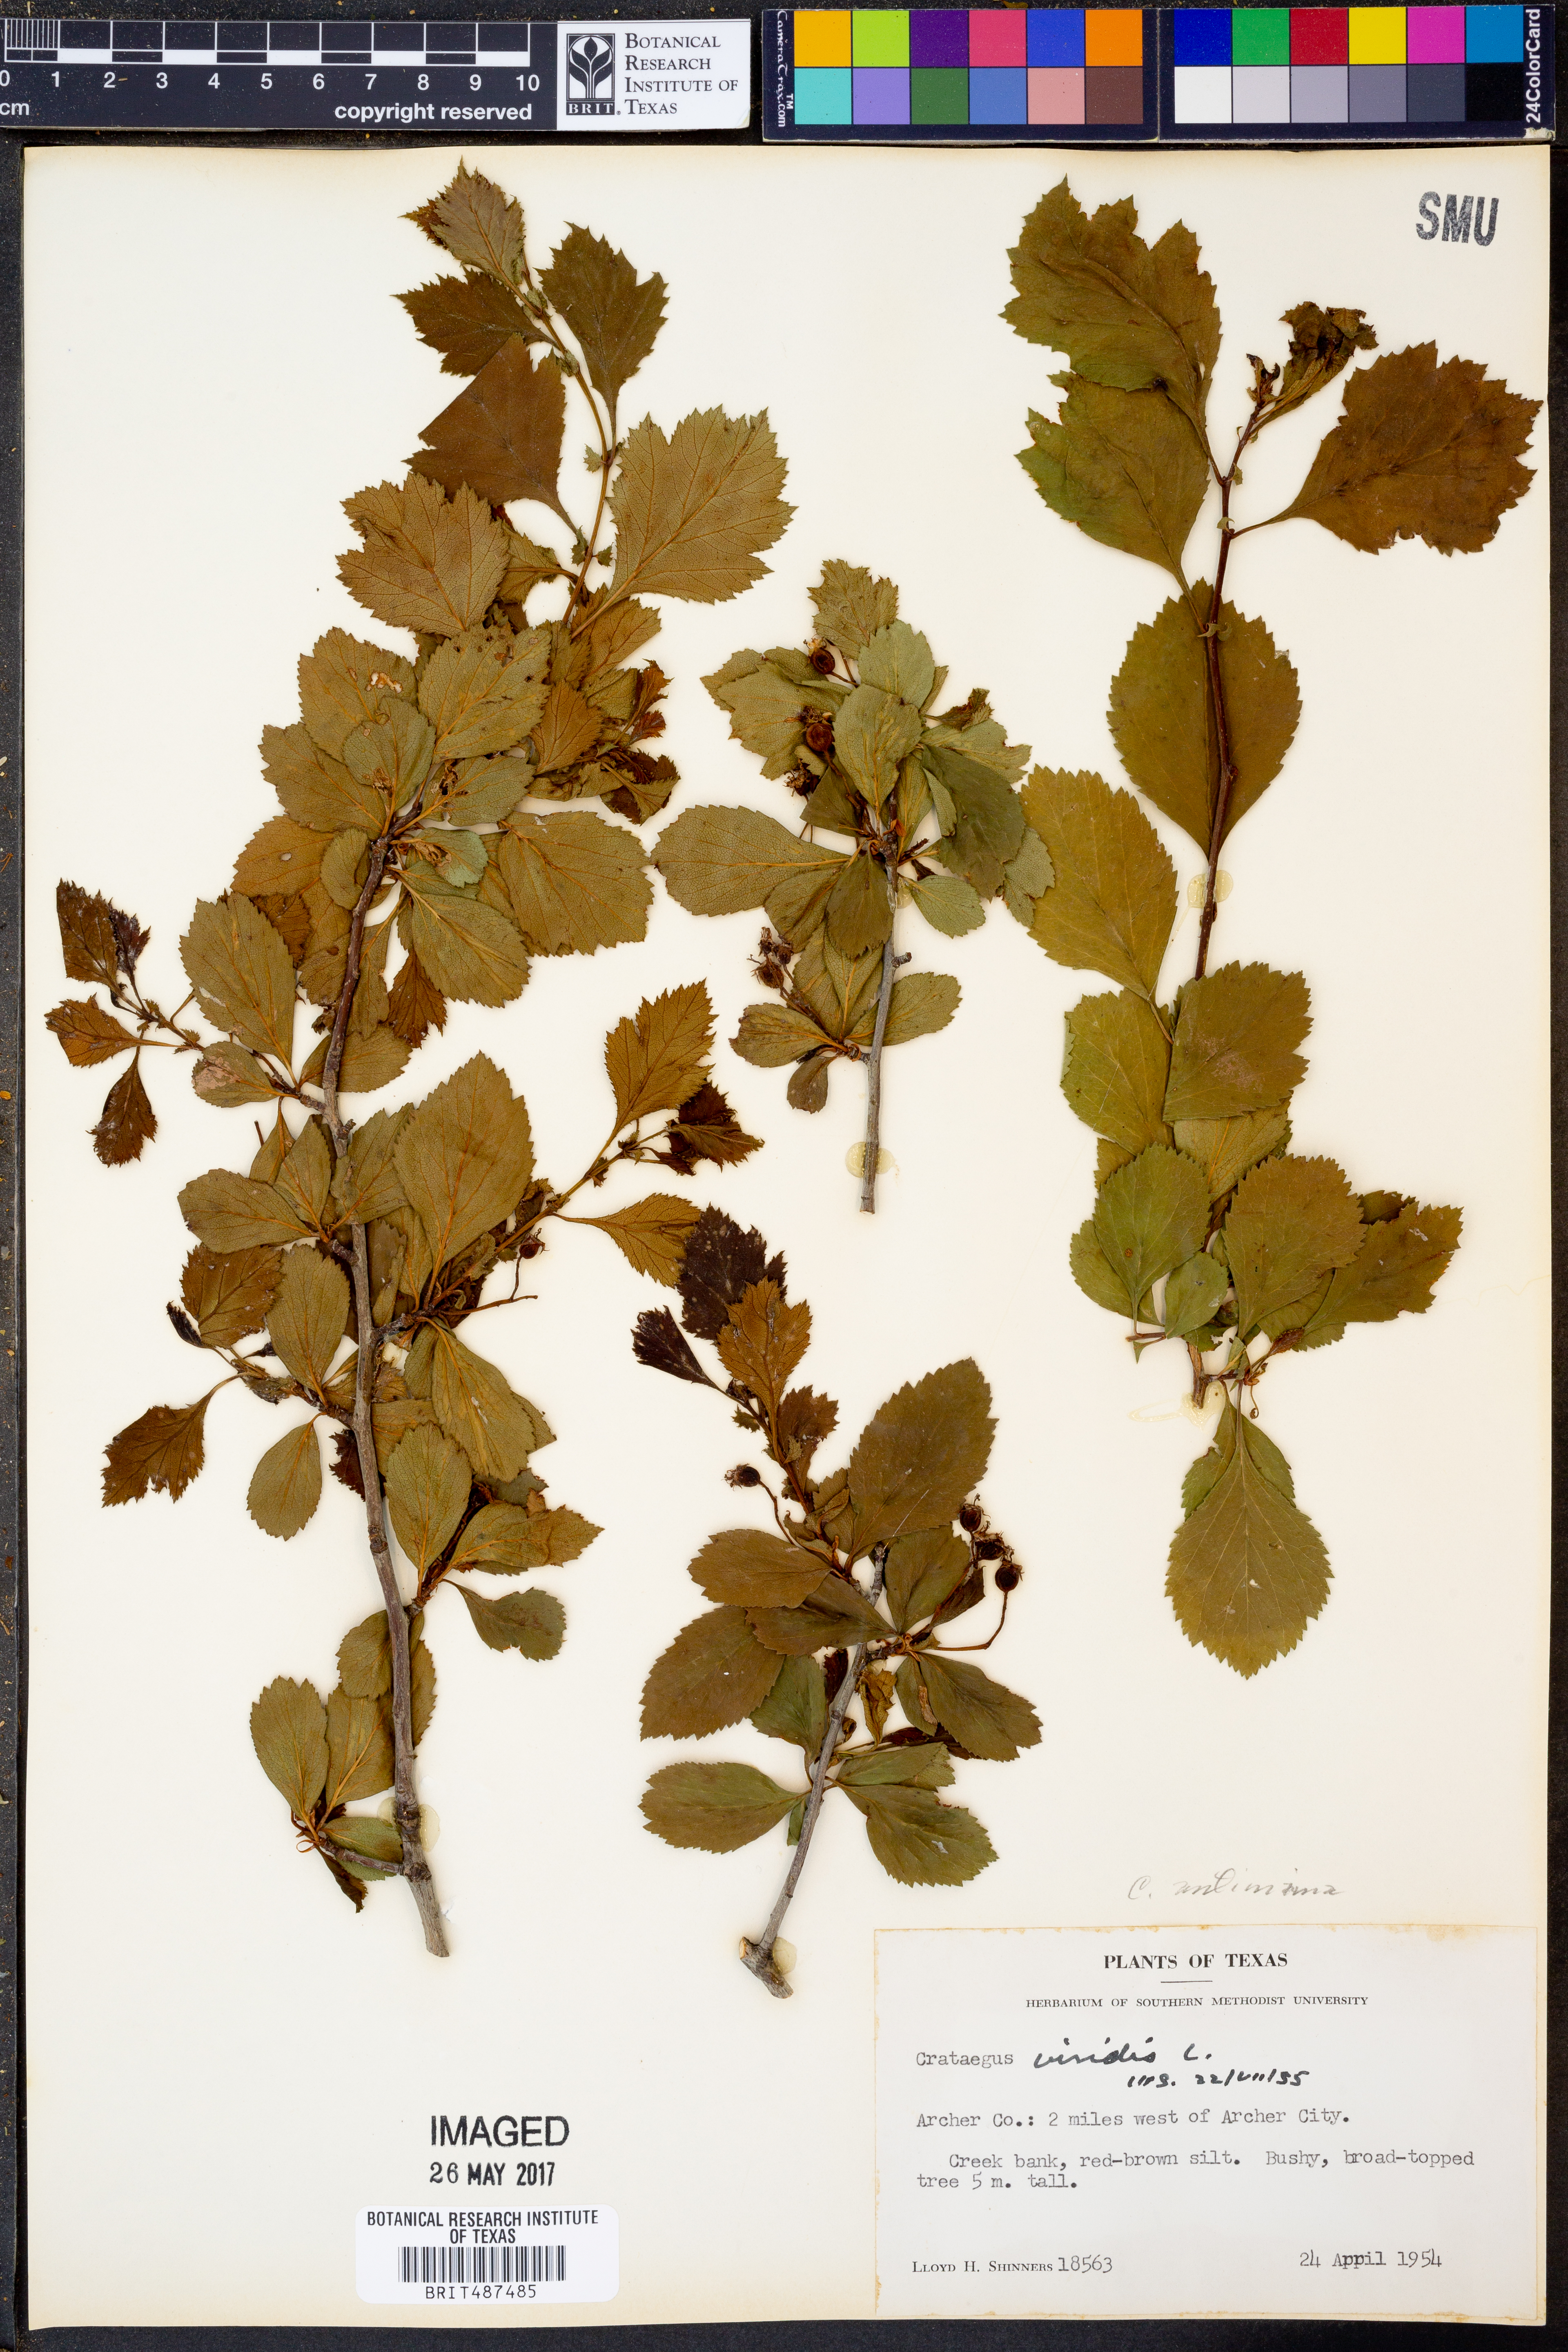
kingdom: Plantae
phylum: Tracheophyta
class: Magnoliopsida
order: Rosales
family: Rosaceae
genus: Crataegus
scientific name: Crataegus antimina
